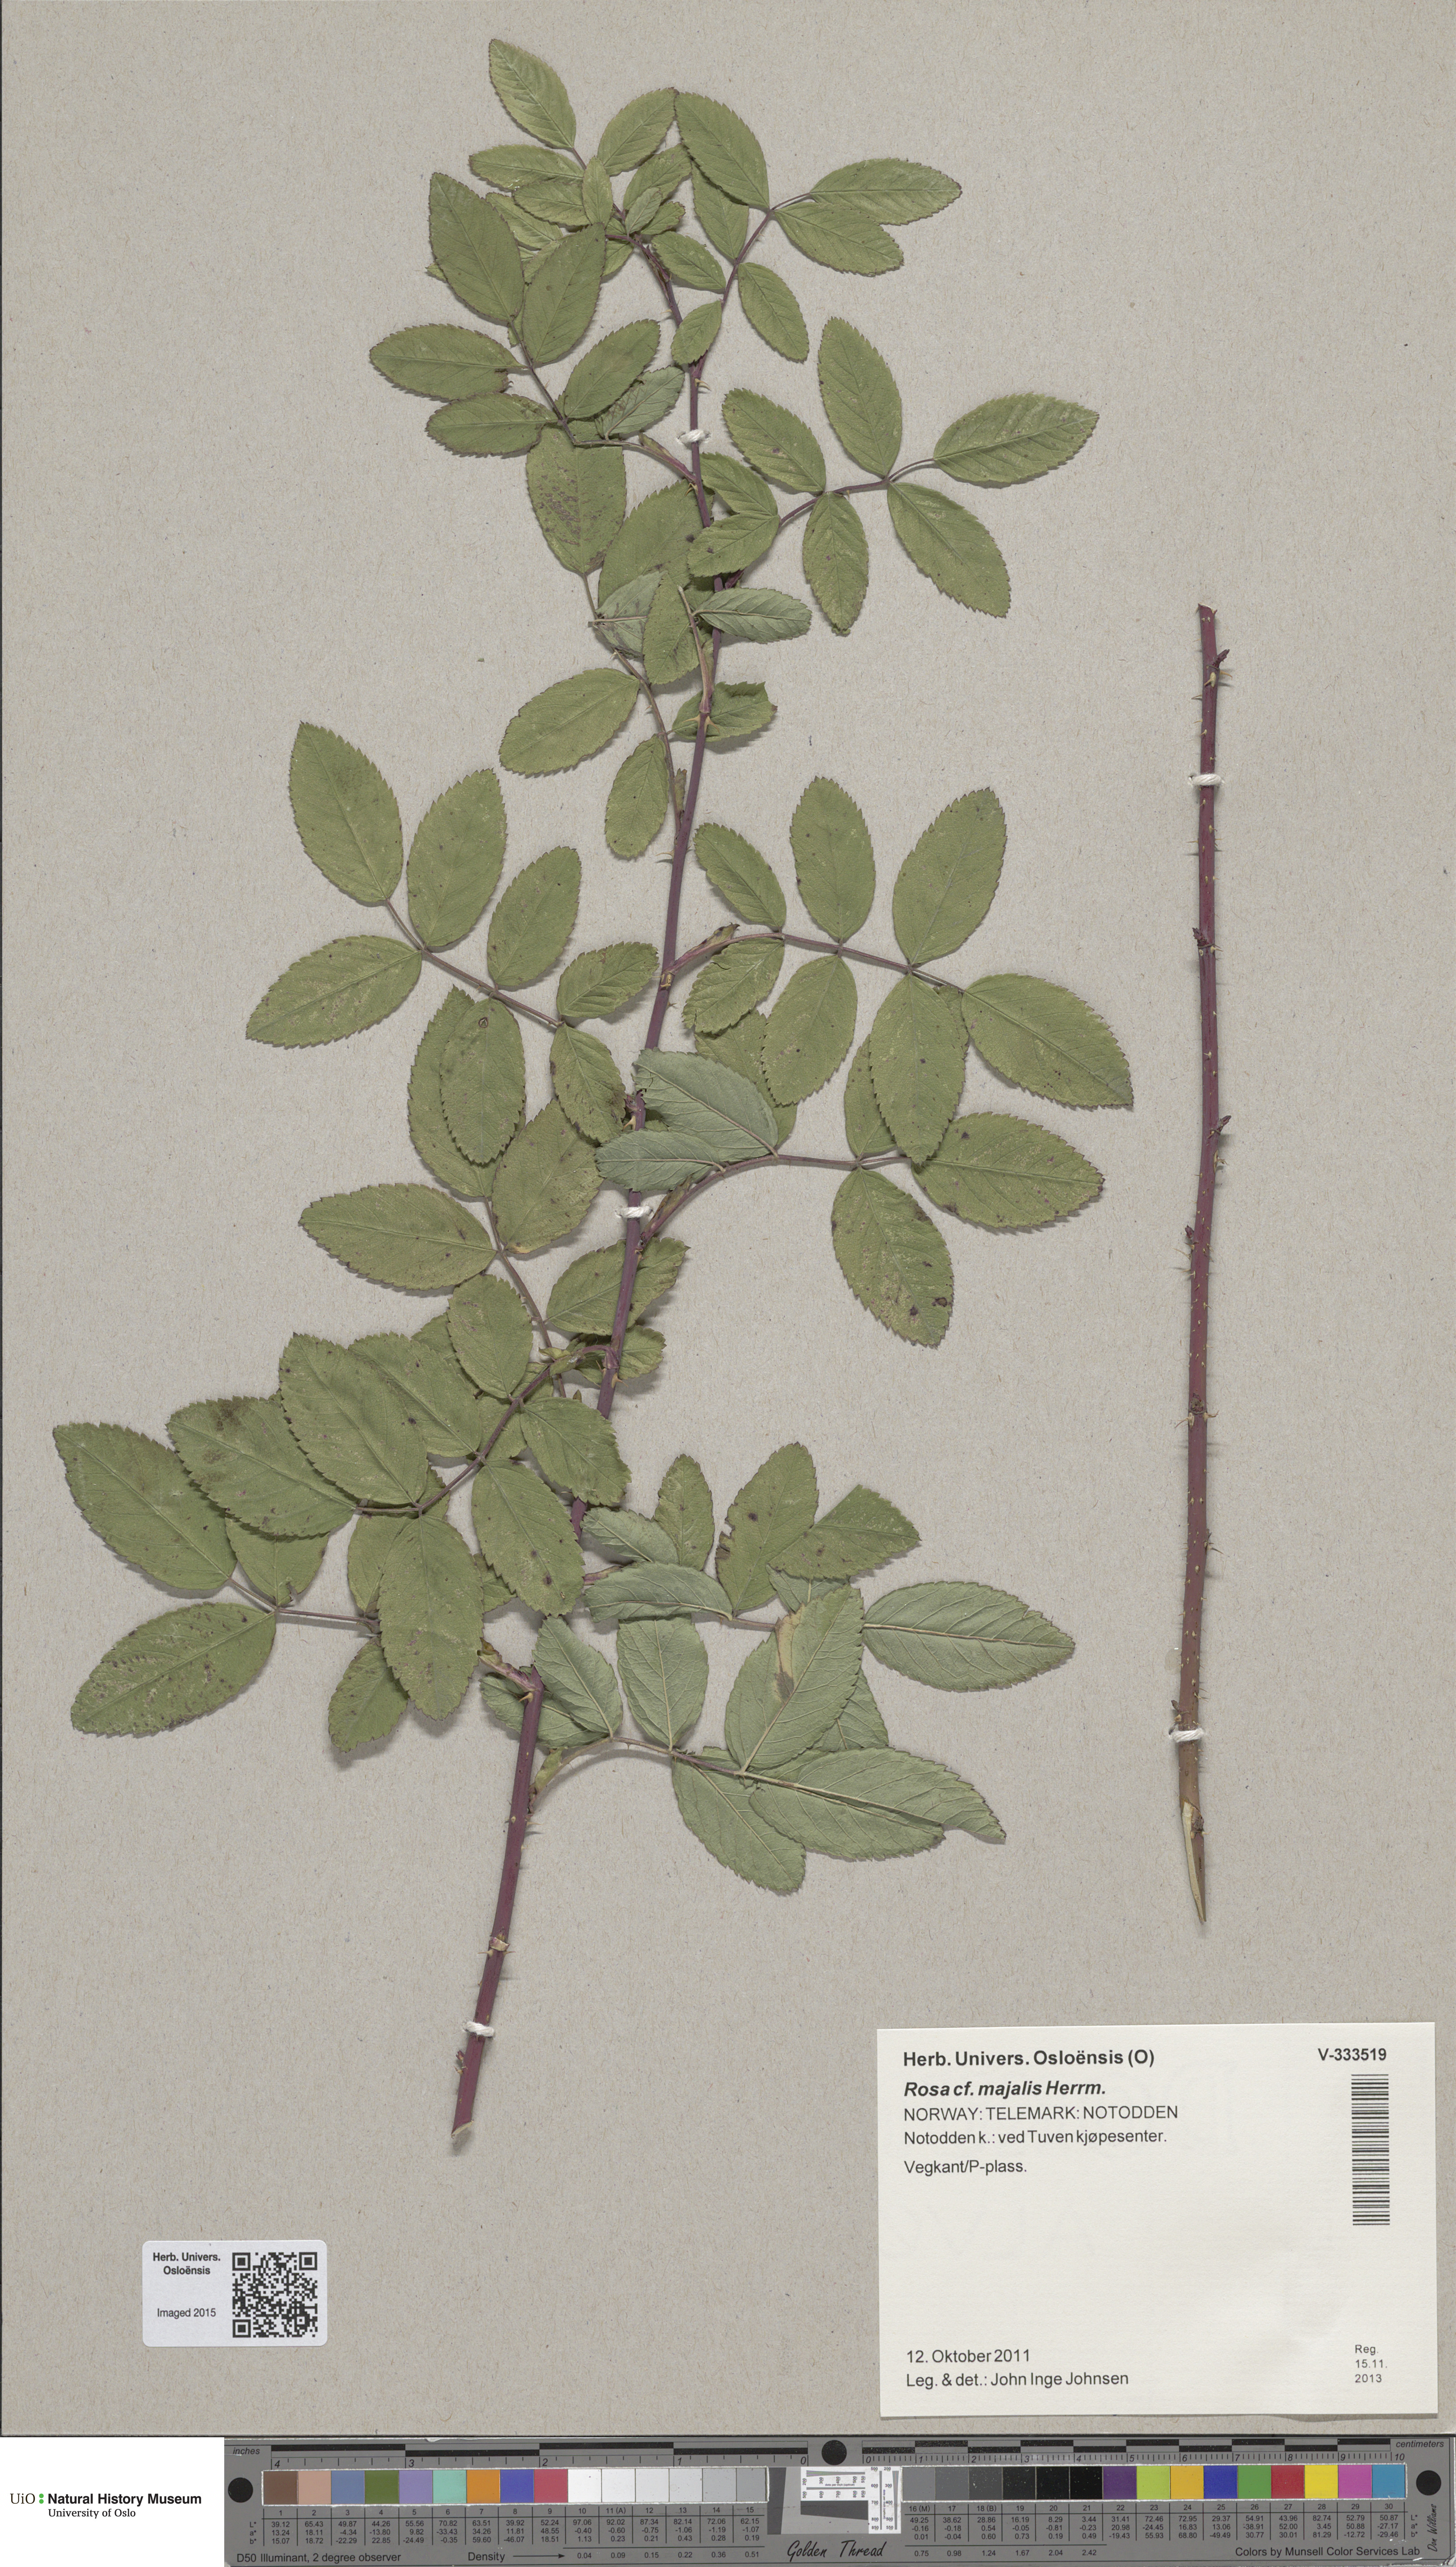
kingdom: Plantae
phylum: Tracheophyta
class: Magnoliopsida
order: Rosales
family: Rosaceae
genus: Rosa
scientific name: Rosa majalis
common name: Cinnamon rose
